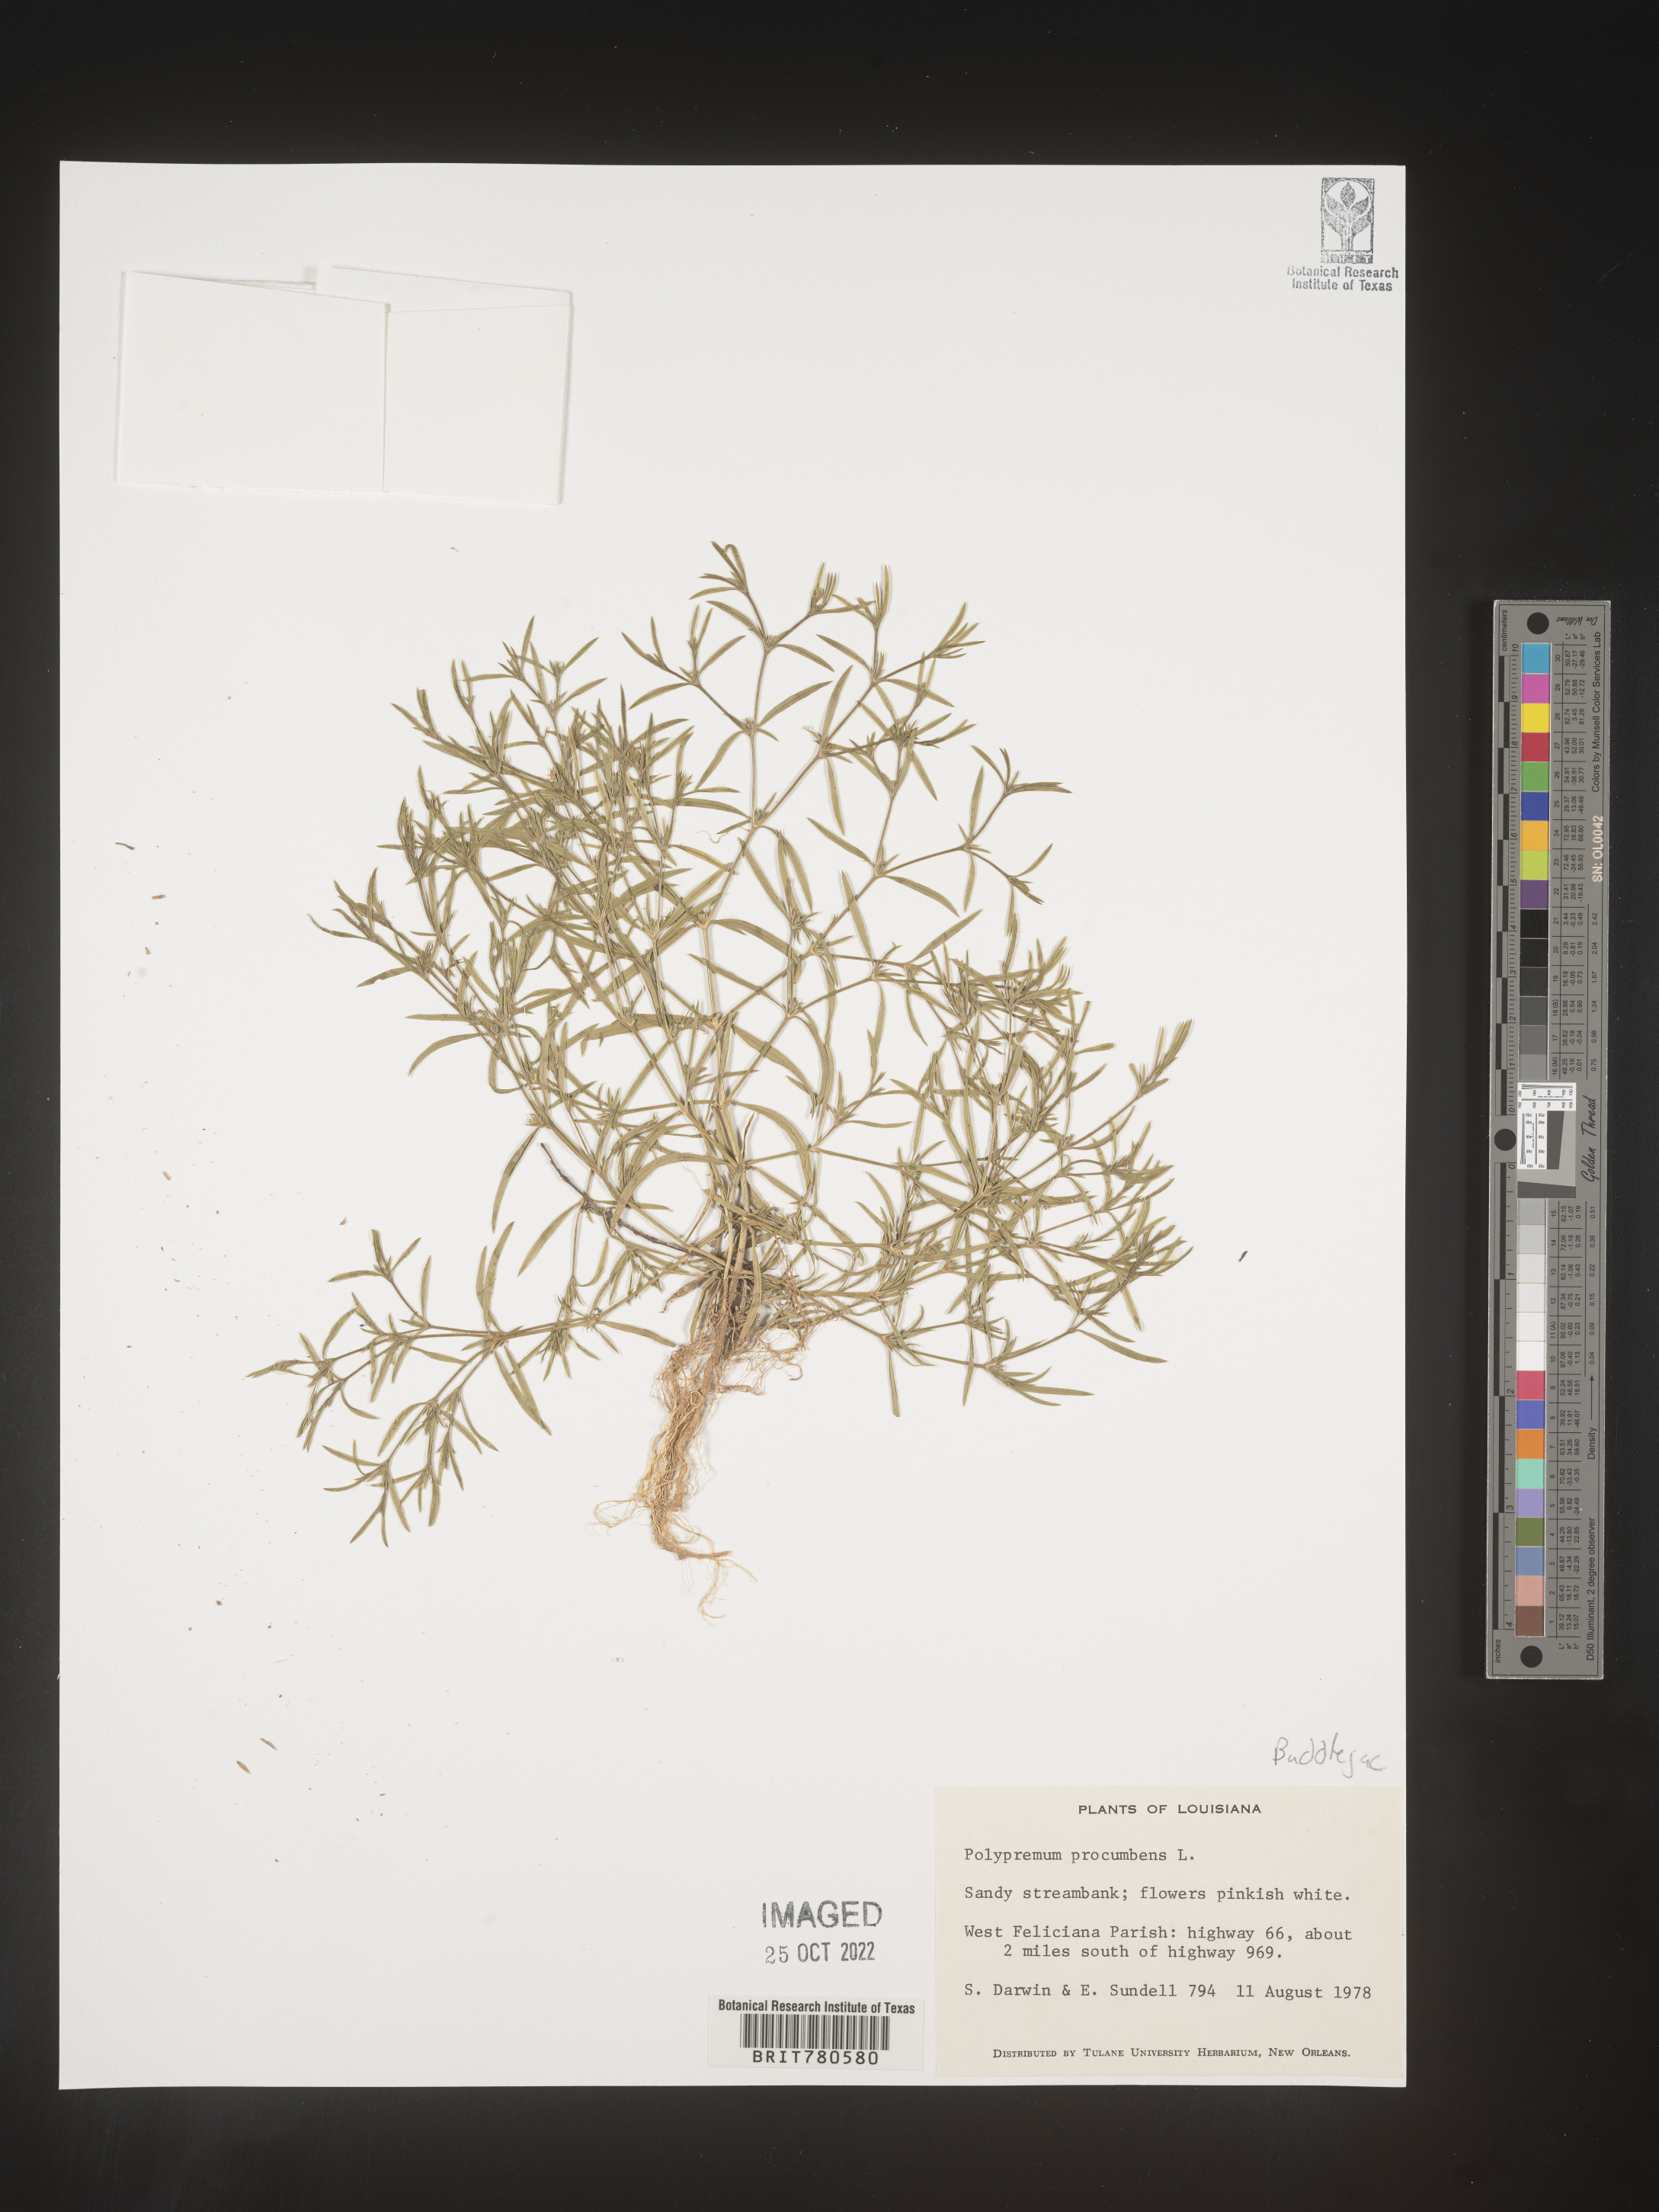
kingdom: Plantae
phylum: Tracheophyta
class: Magnoliopsida
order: Lamiales
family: Tetrachondraceae
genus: Polypremum
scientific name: Polypremum procumbens
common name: Juniper-leaf
